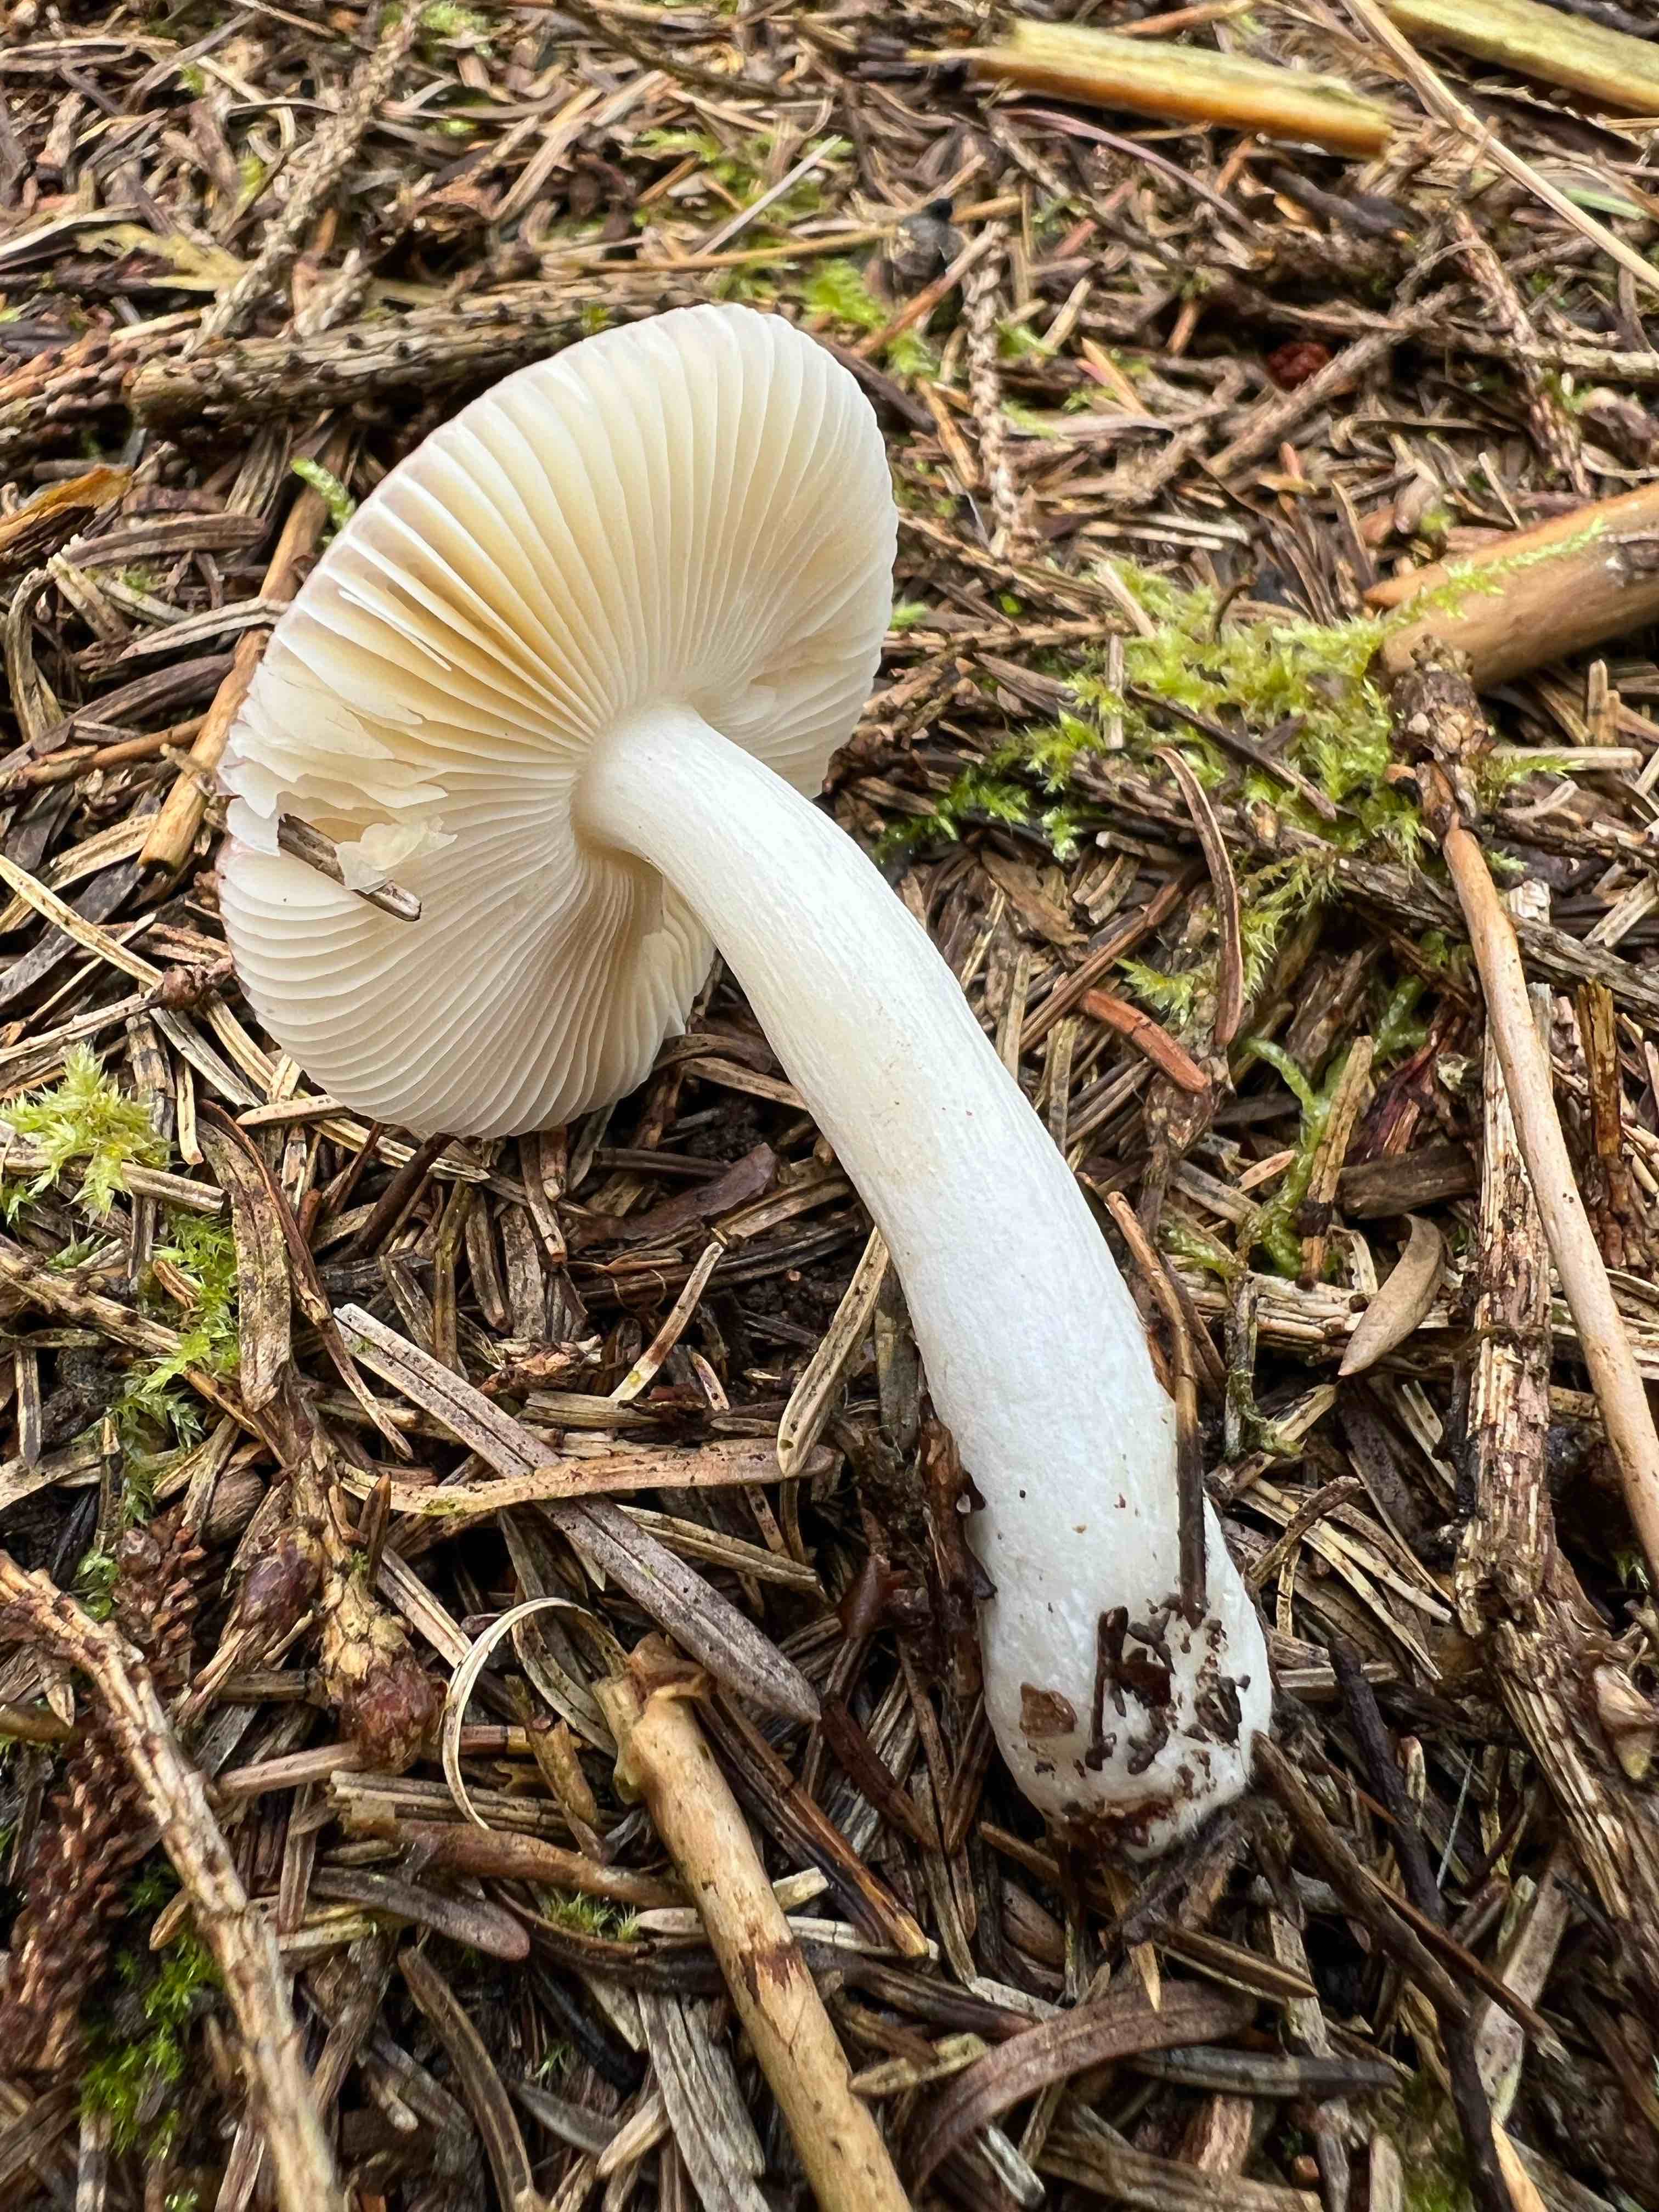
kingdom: Fungi
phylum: Basidiomycota
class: Agaricomycetes
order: Russulales
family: Russulaceae
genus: Russula
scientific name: Russula nauseosa
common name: spinkel skørhat
